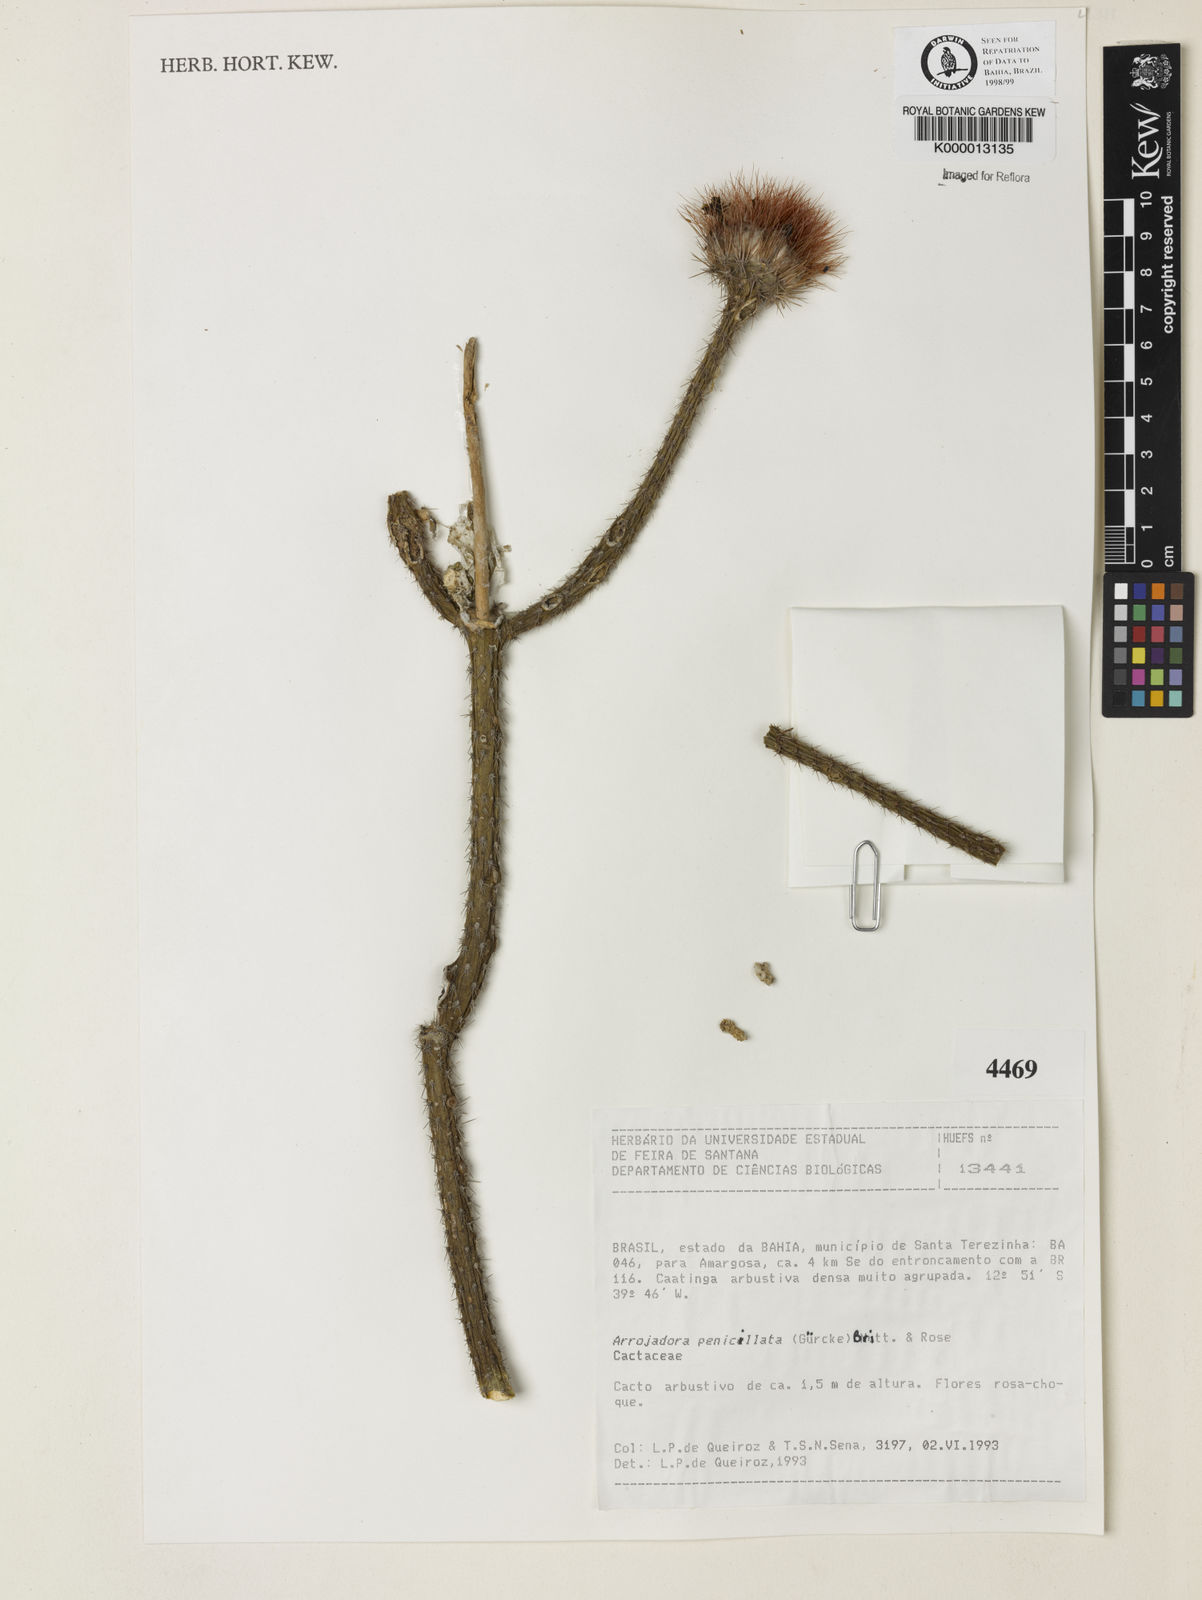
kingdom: Plantae
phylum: Tracheophyta
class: Magnoliopsida
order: Caryophyllales
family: Cactaceae
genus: Arrojadoa
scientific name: Arrojadoa penicillata
